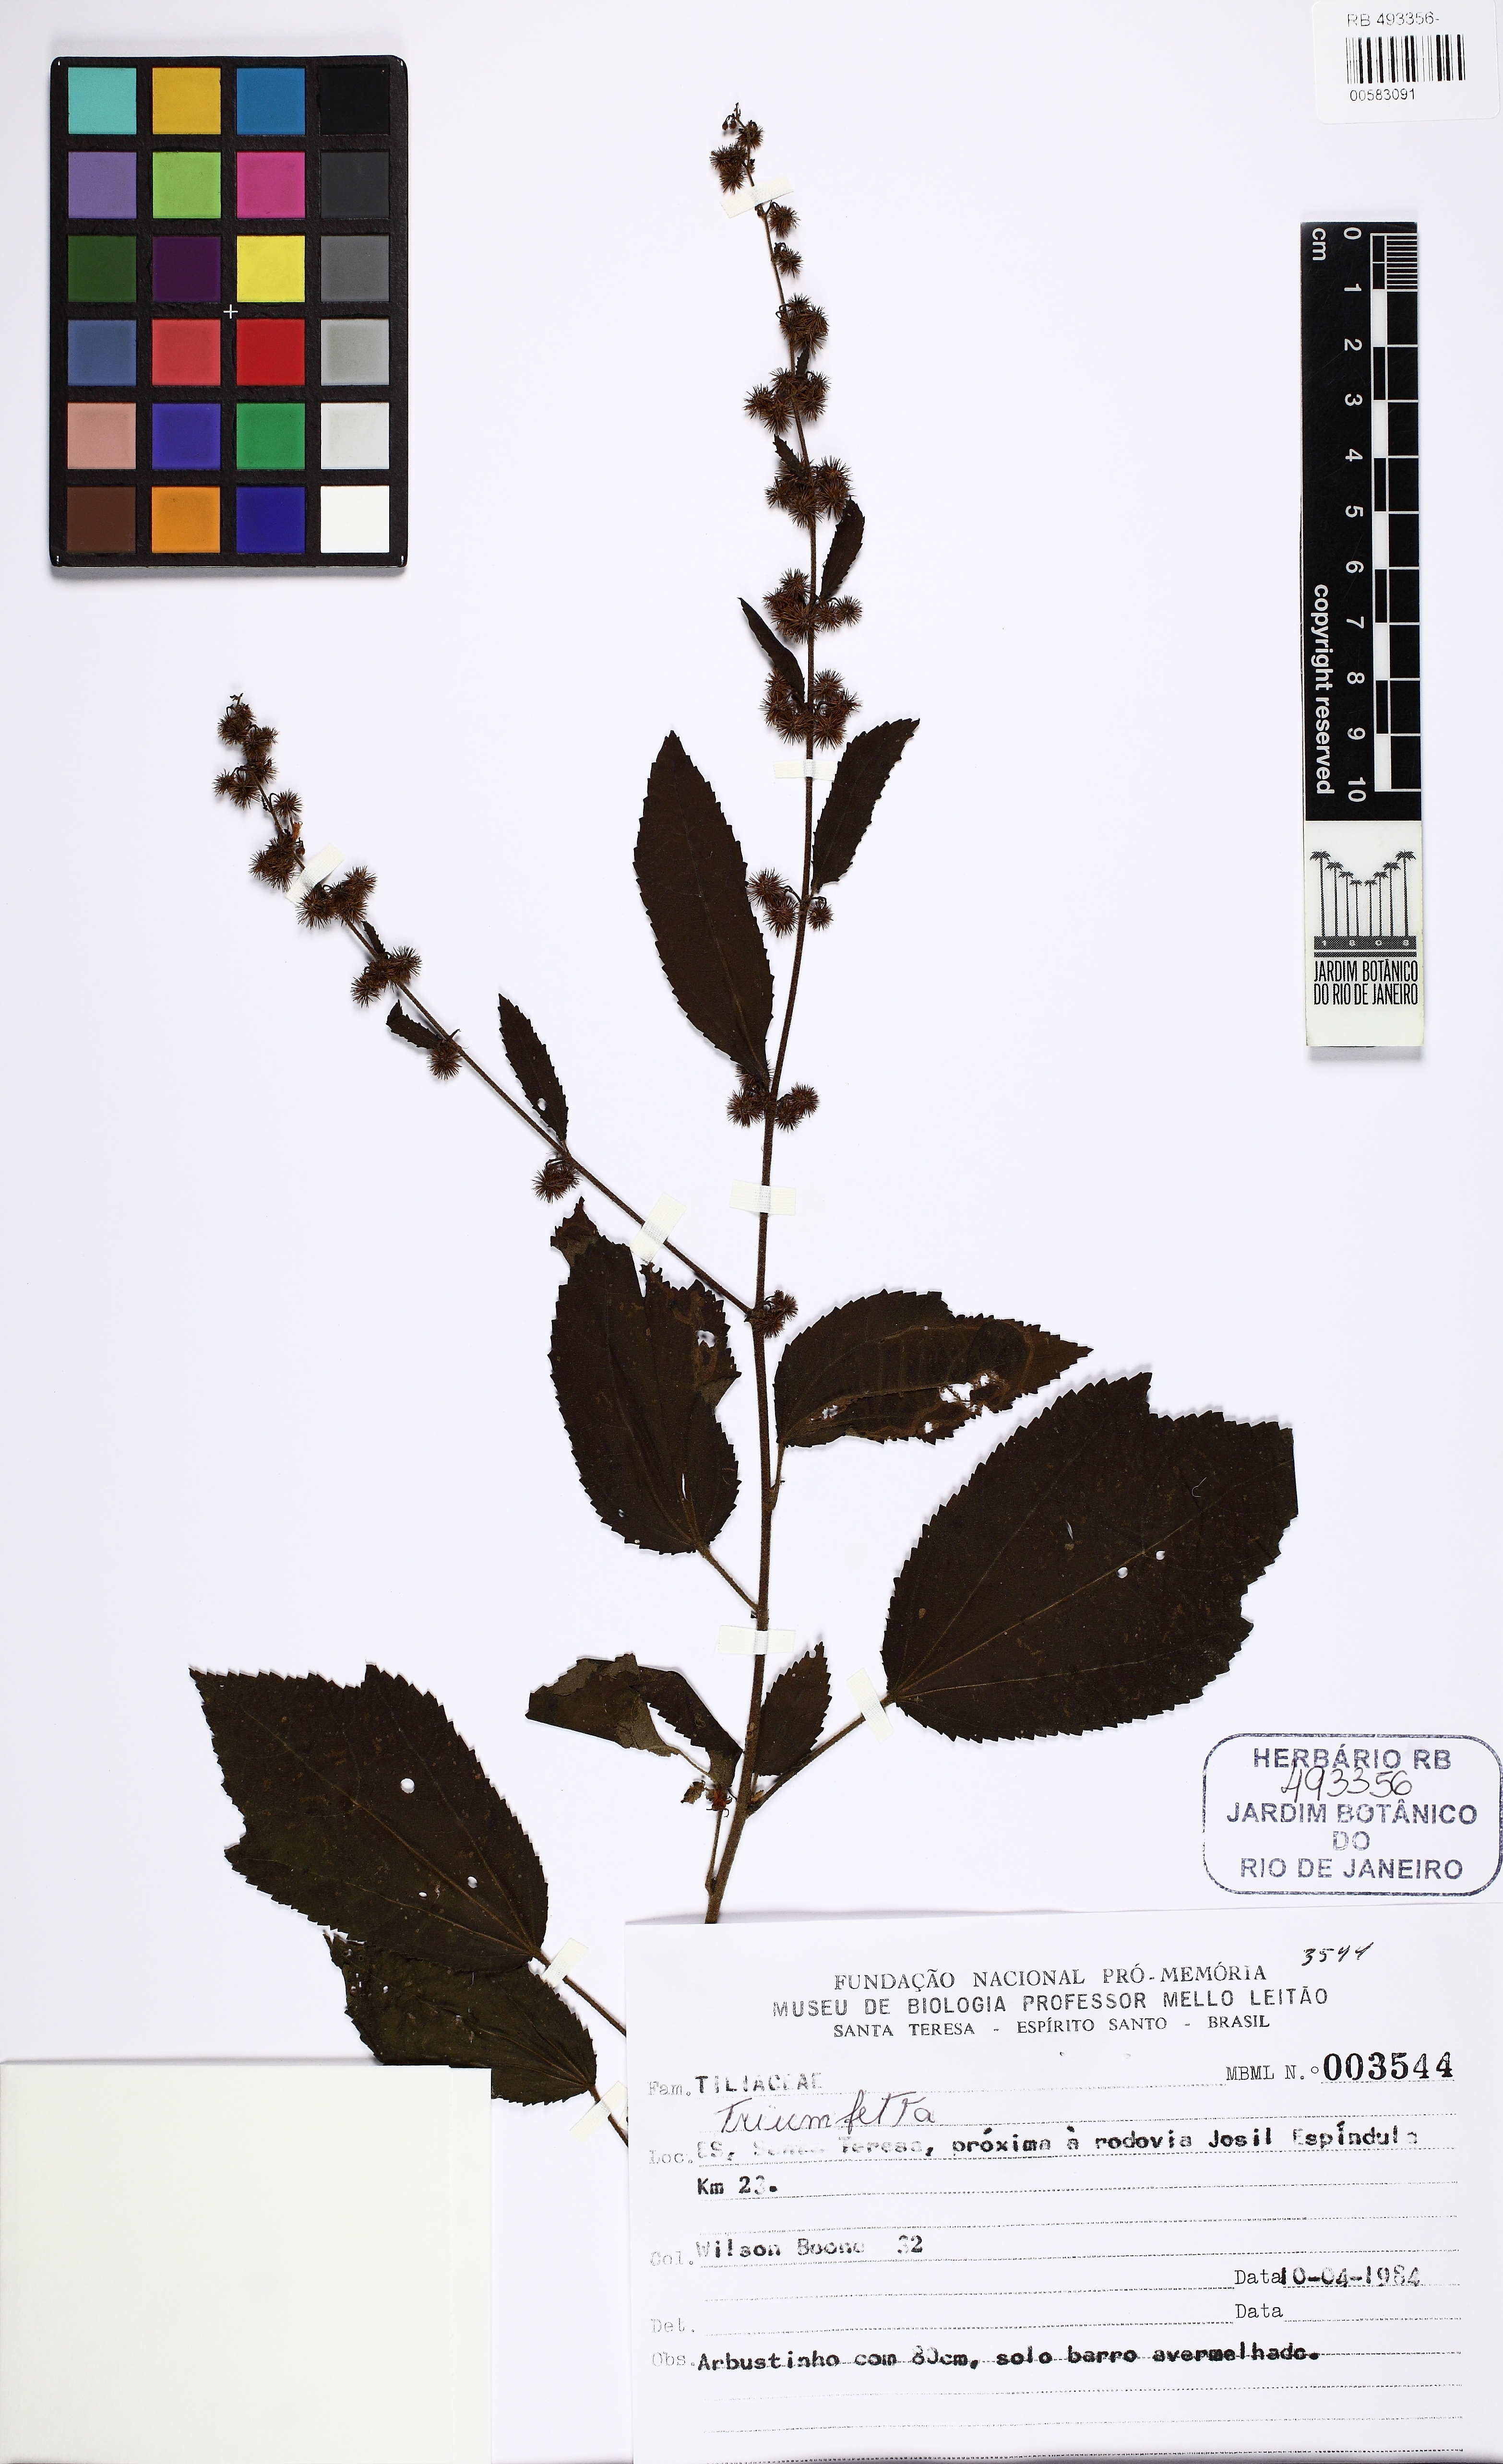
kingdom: Plantae
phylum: Tracheophyta
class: Magnoliopsida
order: Malvales
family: Malvaceae
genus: Triumfetta
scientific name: Triumfetta
